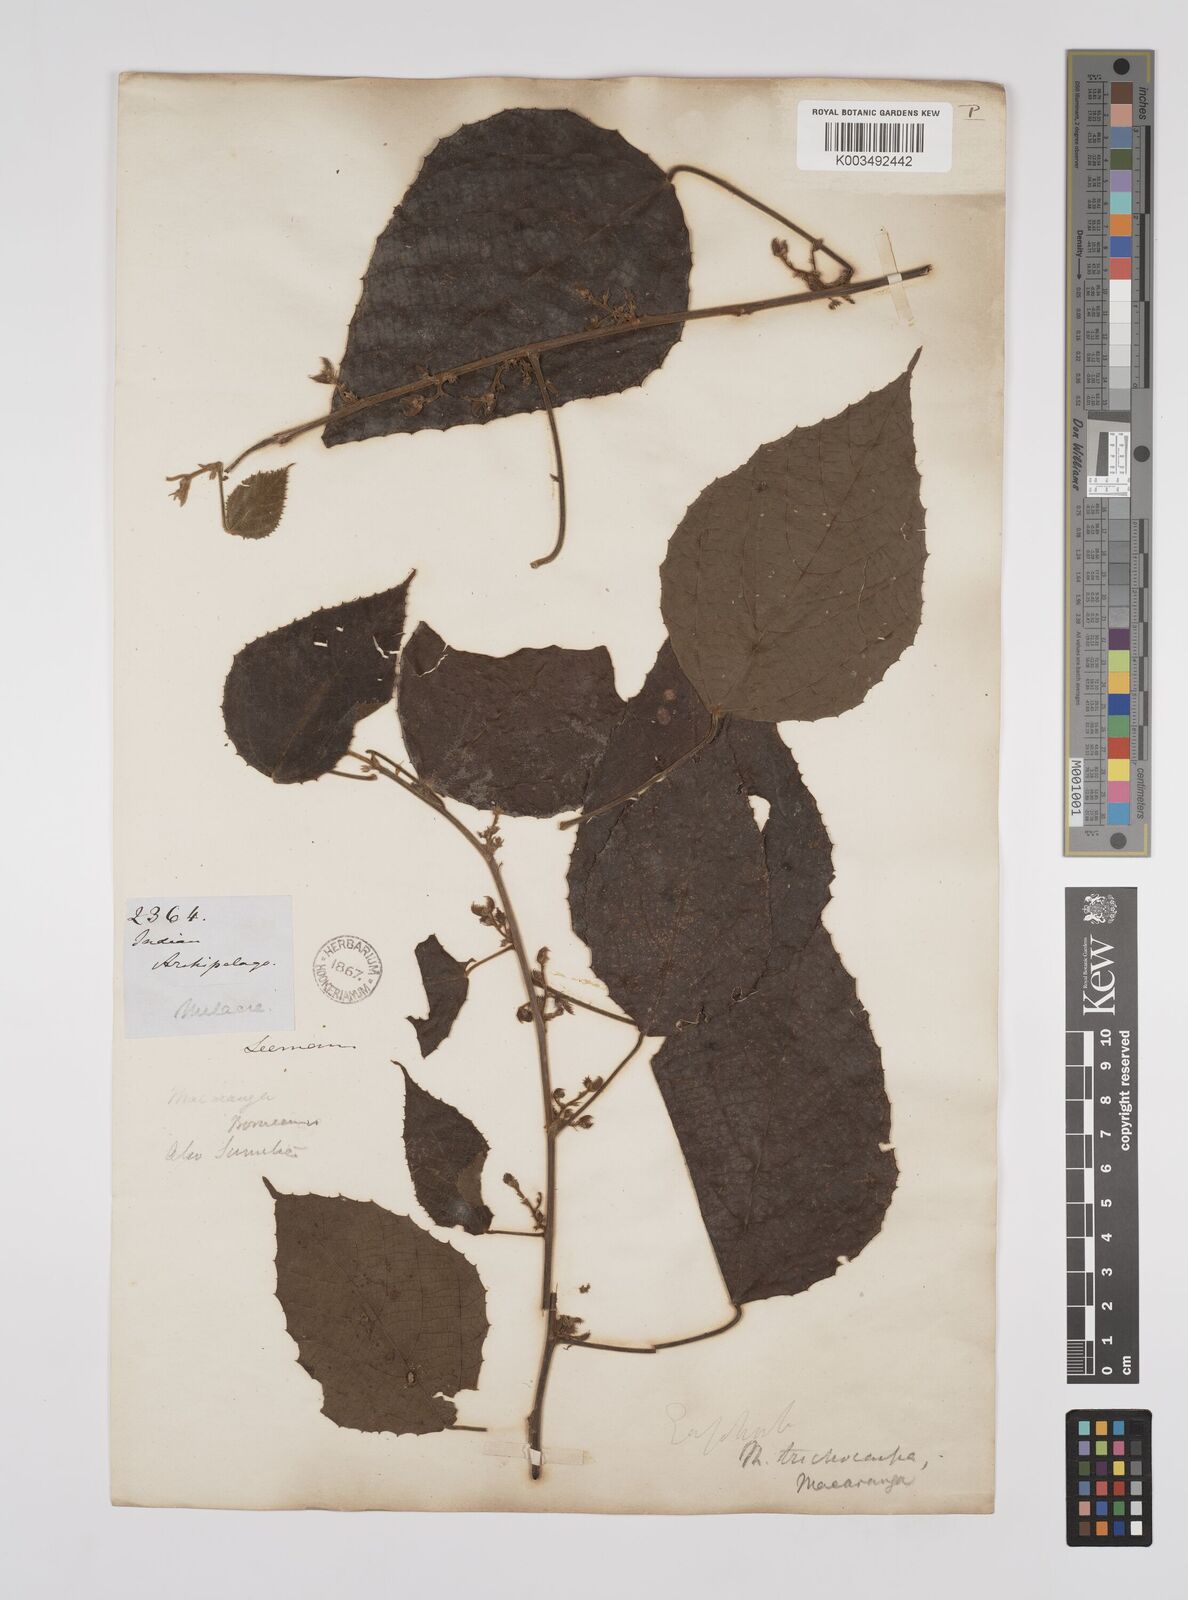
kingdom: Plantae
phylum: Tracheophyta
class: Magnoliopsida
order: Malpighiales
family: Euphorbiaceae
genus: Macaranga
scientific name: Macaranga trichocarpa
